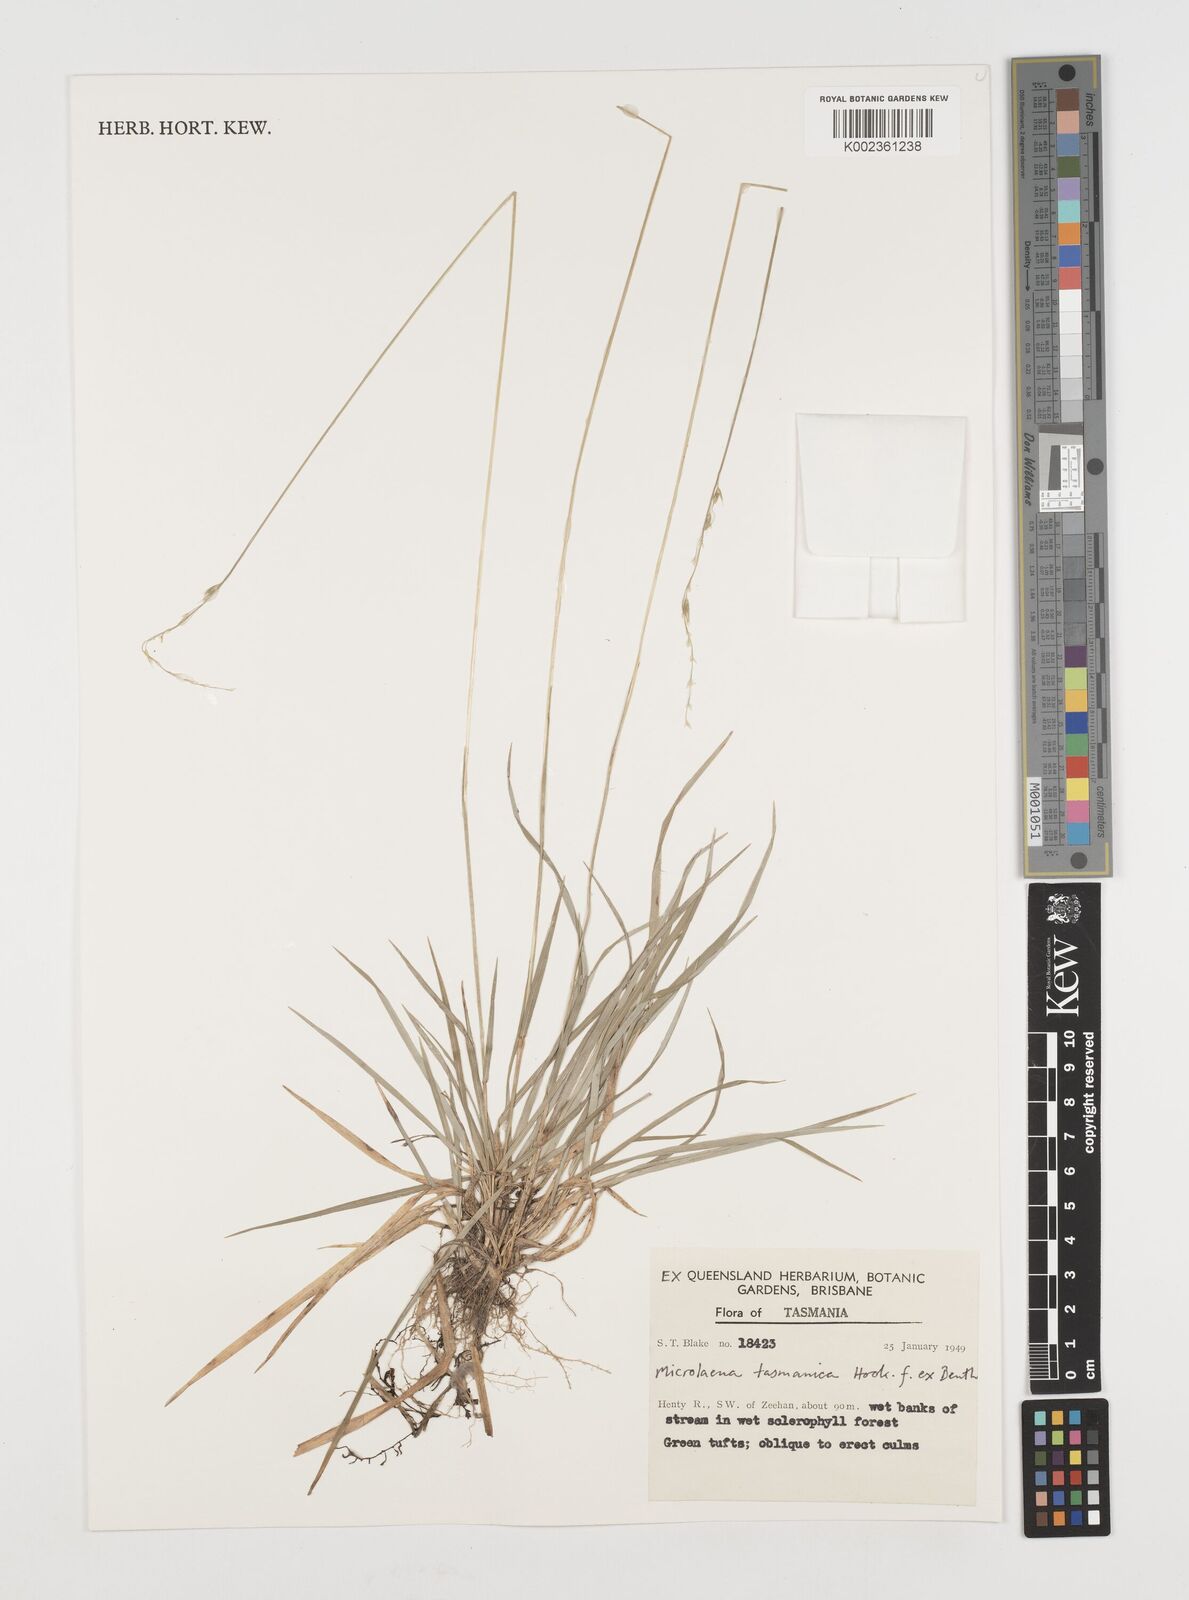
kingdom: Plantae
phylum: Tracheophyta
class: Liliopsida
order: Poales
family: Poaceae
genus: Microlaena
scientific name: Microlaena tasmanica
